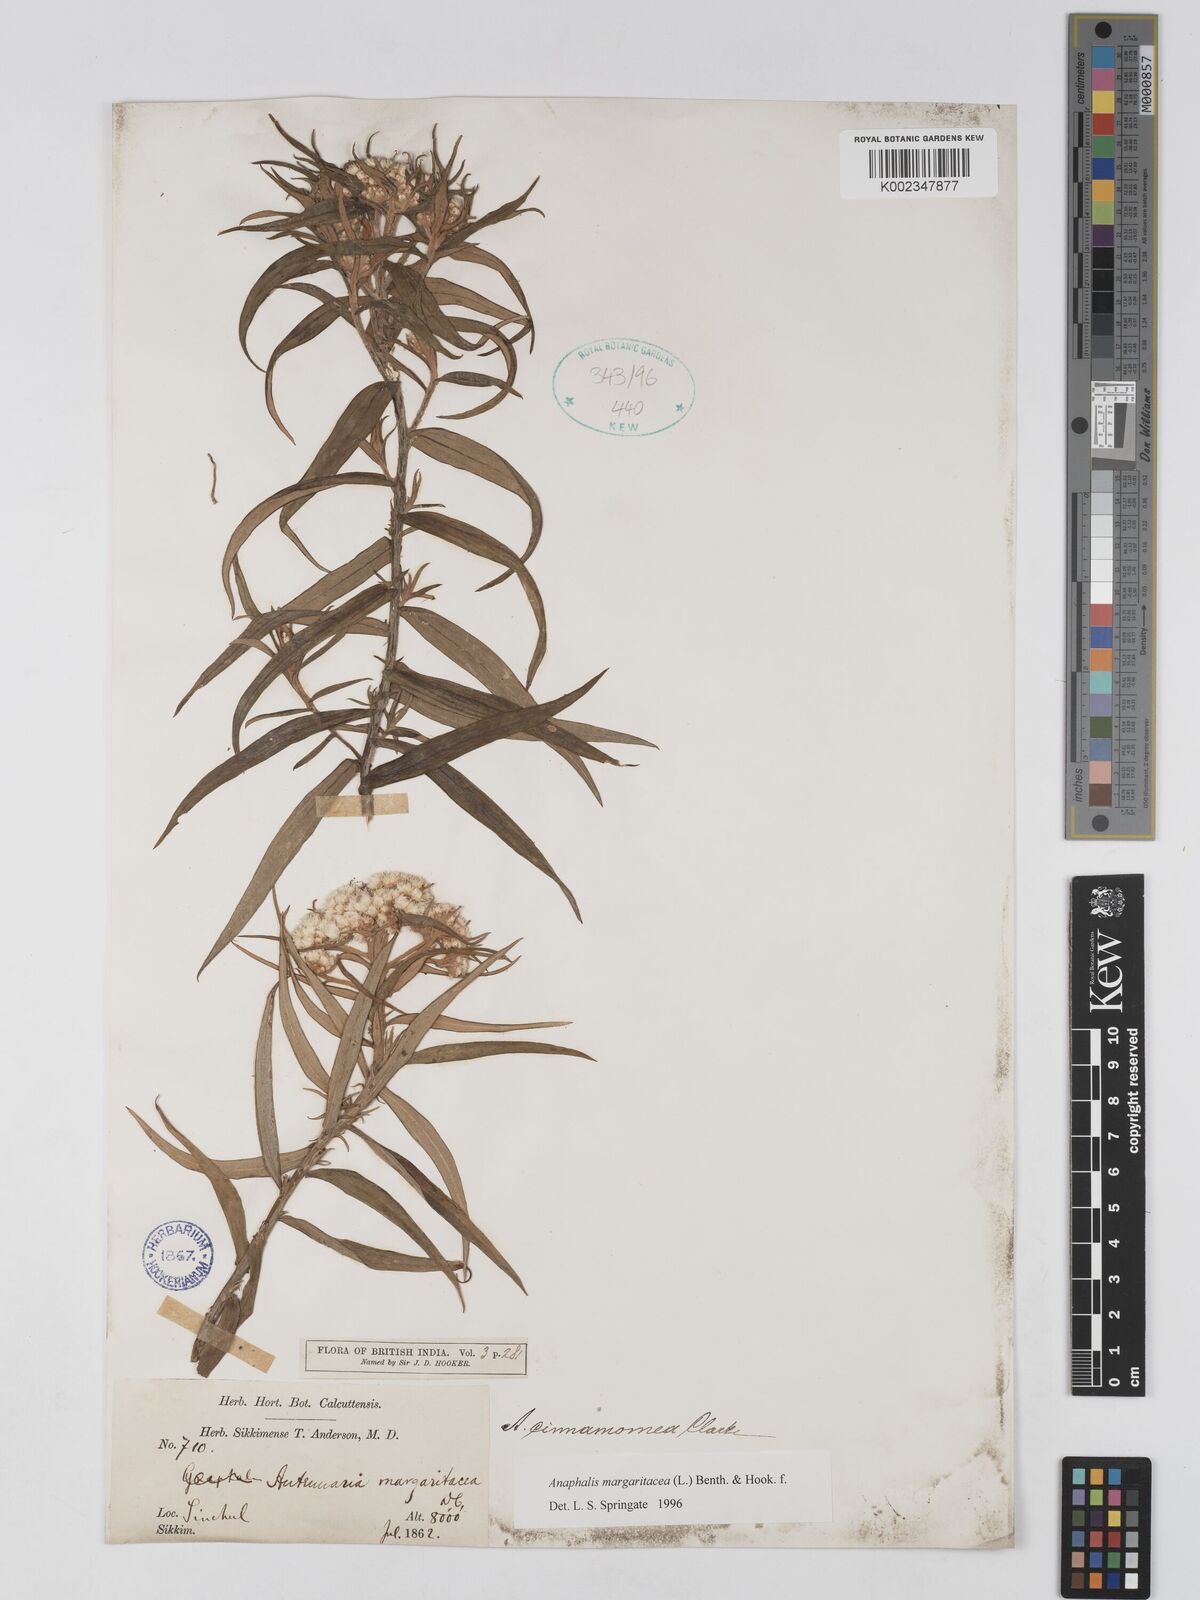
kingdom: Plantae
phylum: Tracheophyta
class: Magnoliopsida
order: Asterales
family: Asteraceae
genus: Anaphalis
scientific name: Anaphalis margaritacea
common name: Pearly everlasting
